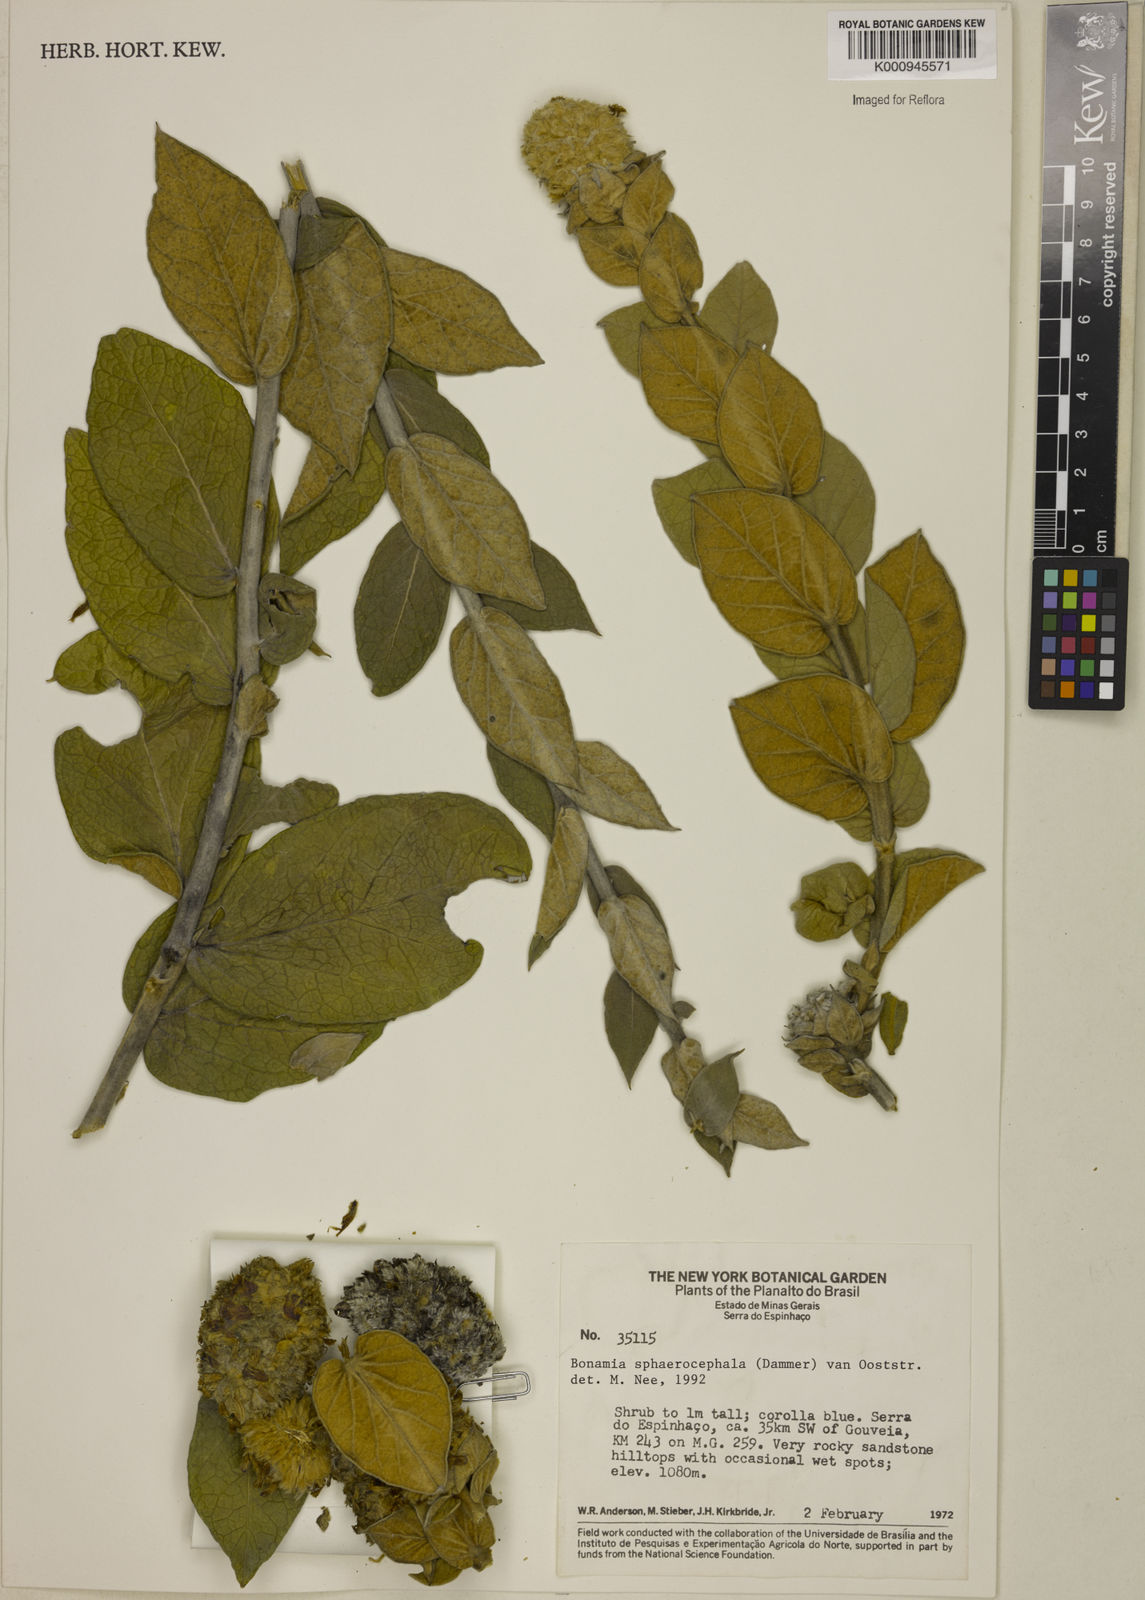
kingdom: Plantae
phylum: Tracheophyta
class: Magnoliopsida
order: Solanales
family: Convolvulaceae
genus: Bonamia
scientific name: Bonamia sphaerocephala
